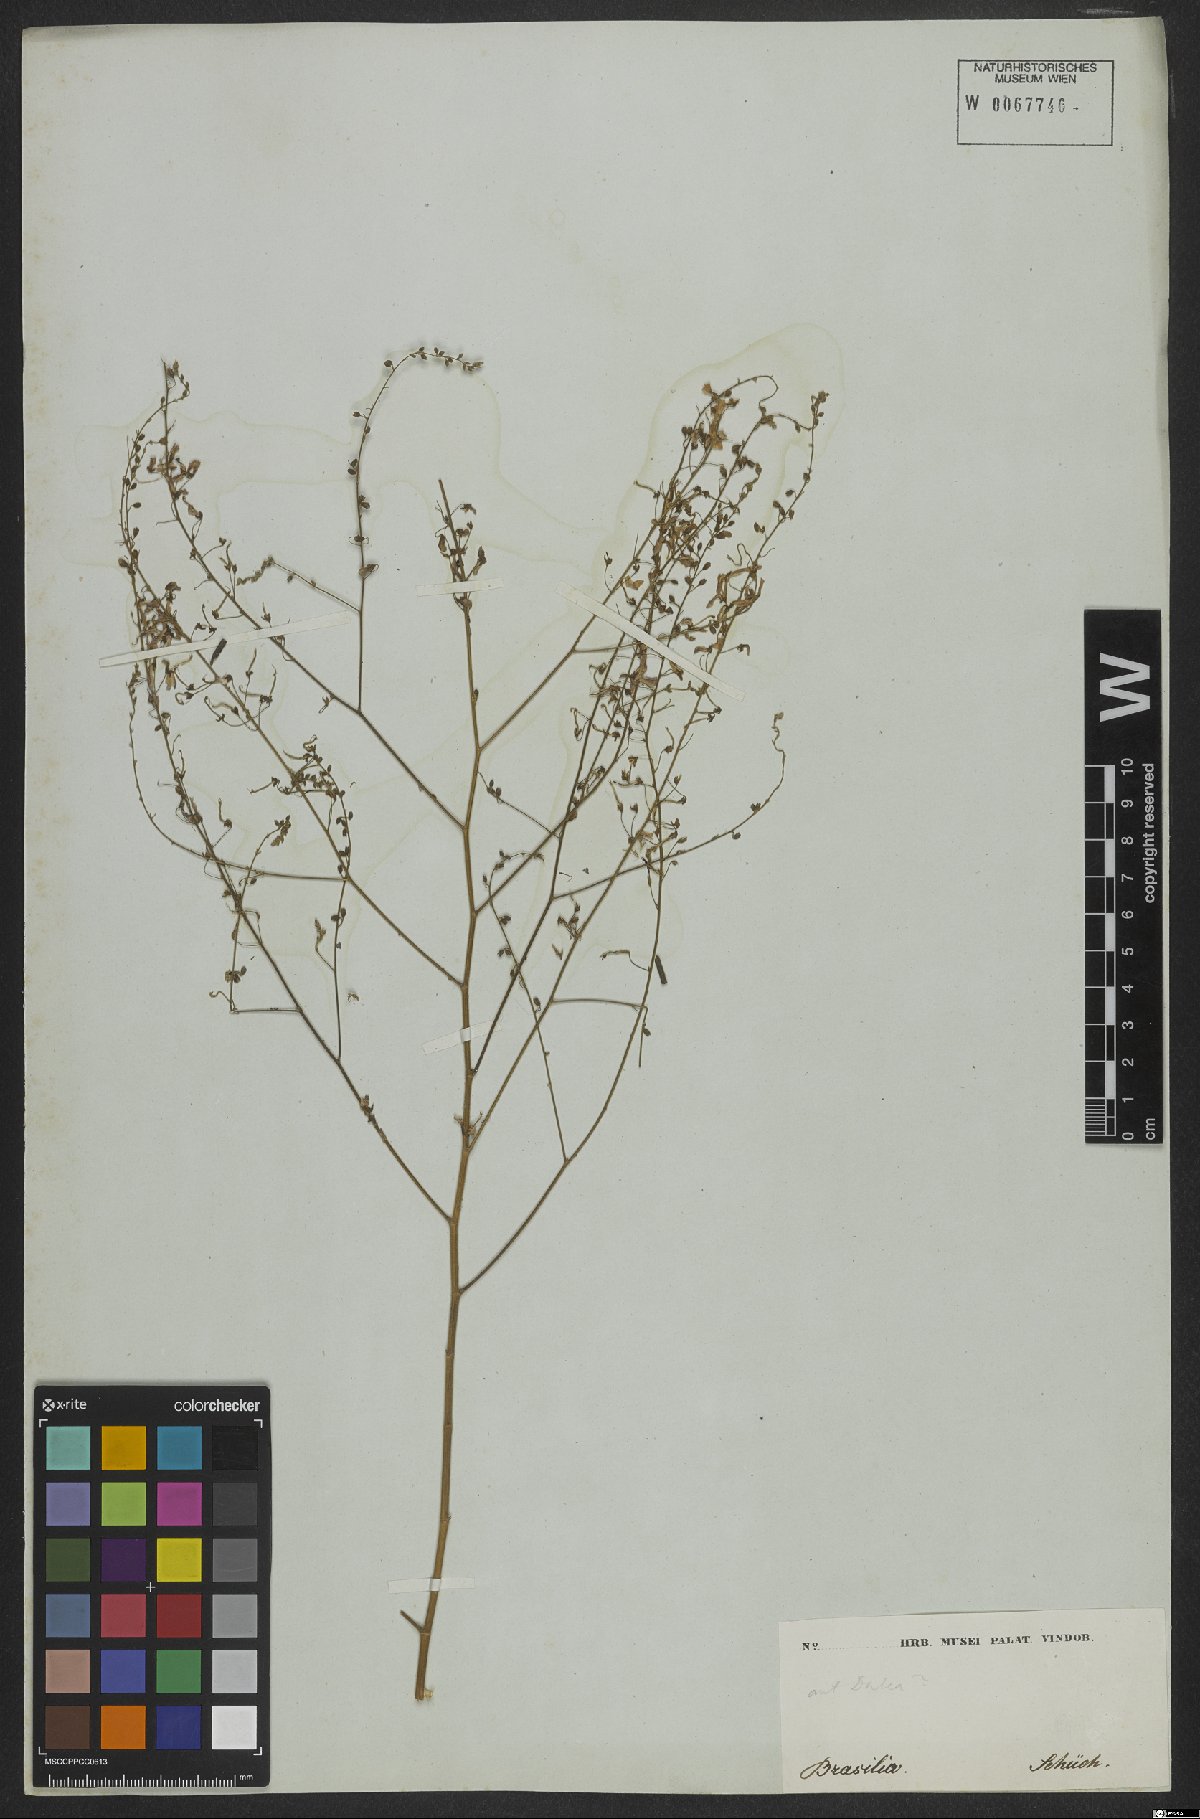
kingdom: Plantae
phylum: Tracheophyta
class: Magnoliopsida
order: Fabales
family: Fabaceae
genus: Indigofera
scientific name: Indigofera
